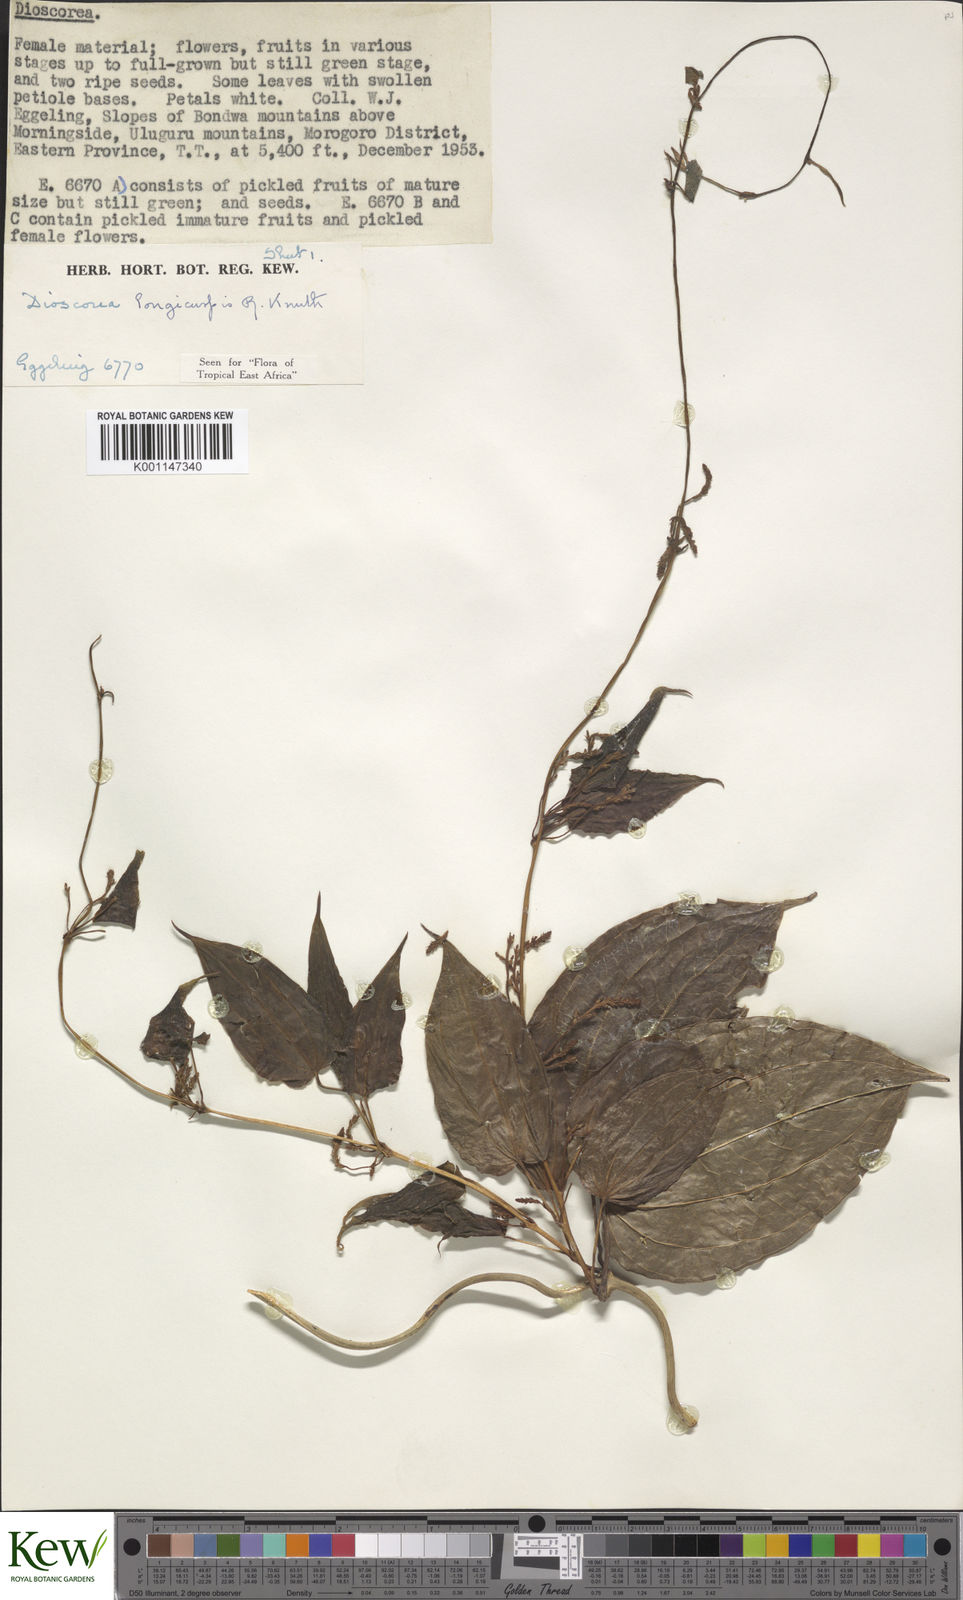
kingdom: Plantae
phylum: Tracheophyta
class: Liliopsida
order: Dioscoreales
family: Dioscoreaceae
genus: Dioscorea
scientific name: Dioscorea longicuspis
